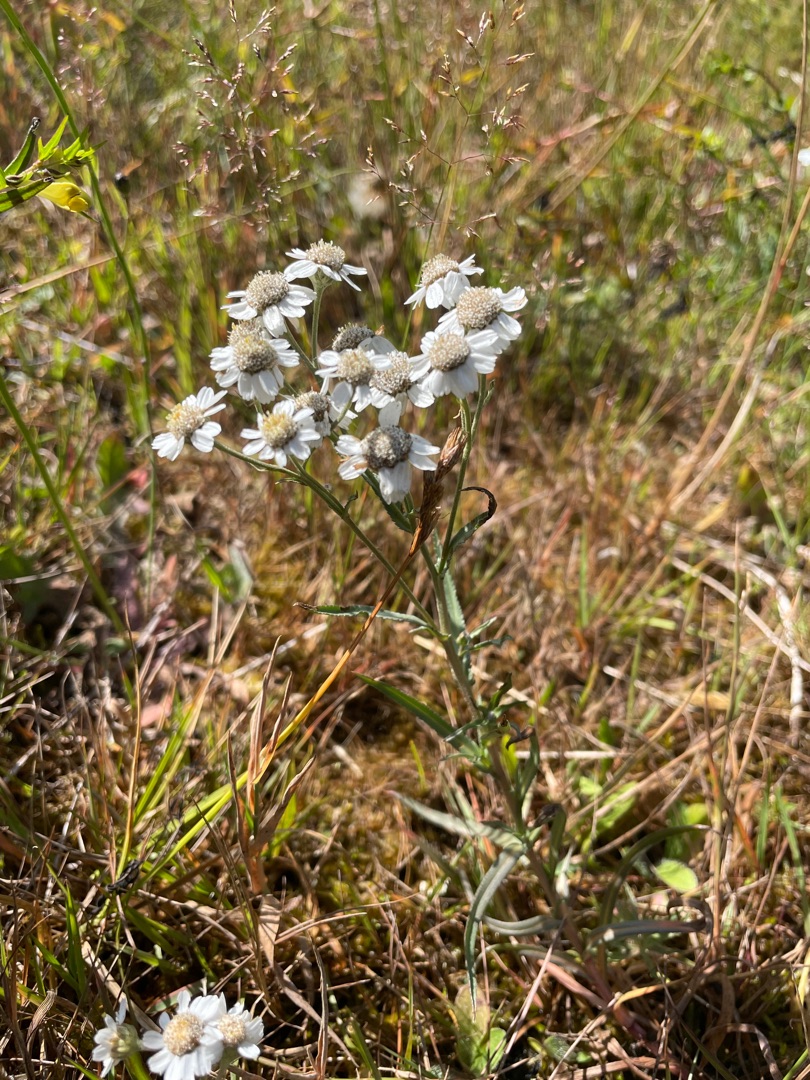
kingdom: Plantae
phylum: Tracheophyta
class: Magnoliopsida
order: Asterales
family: Asteraceae
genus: Achillea
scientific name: Achillea ptarmica
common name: Nyse-røllike
